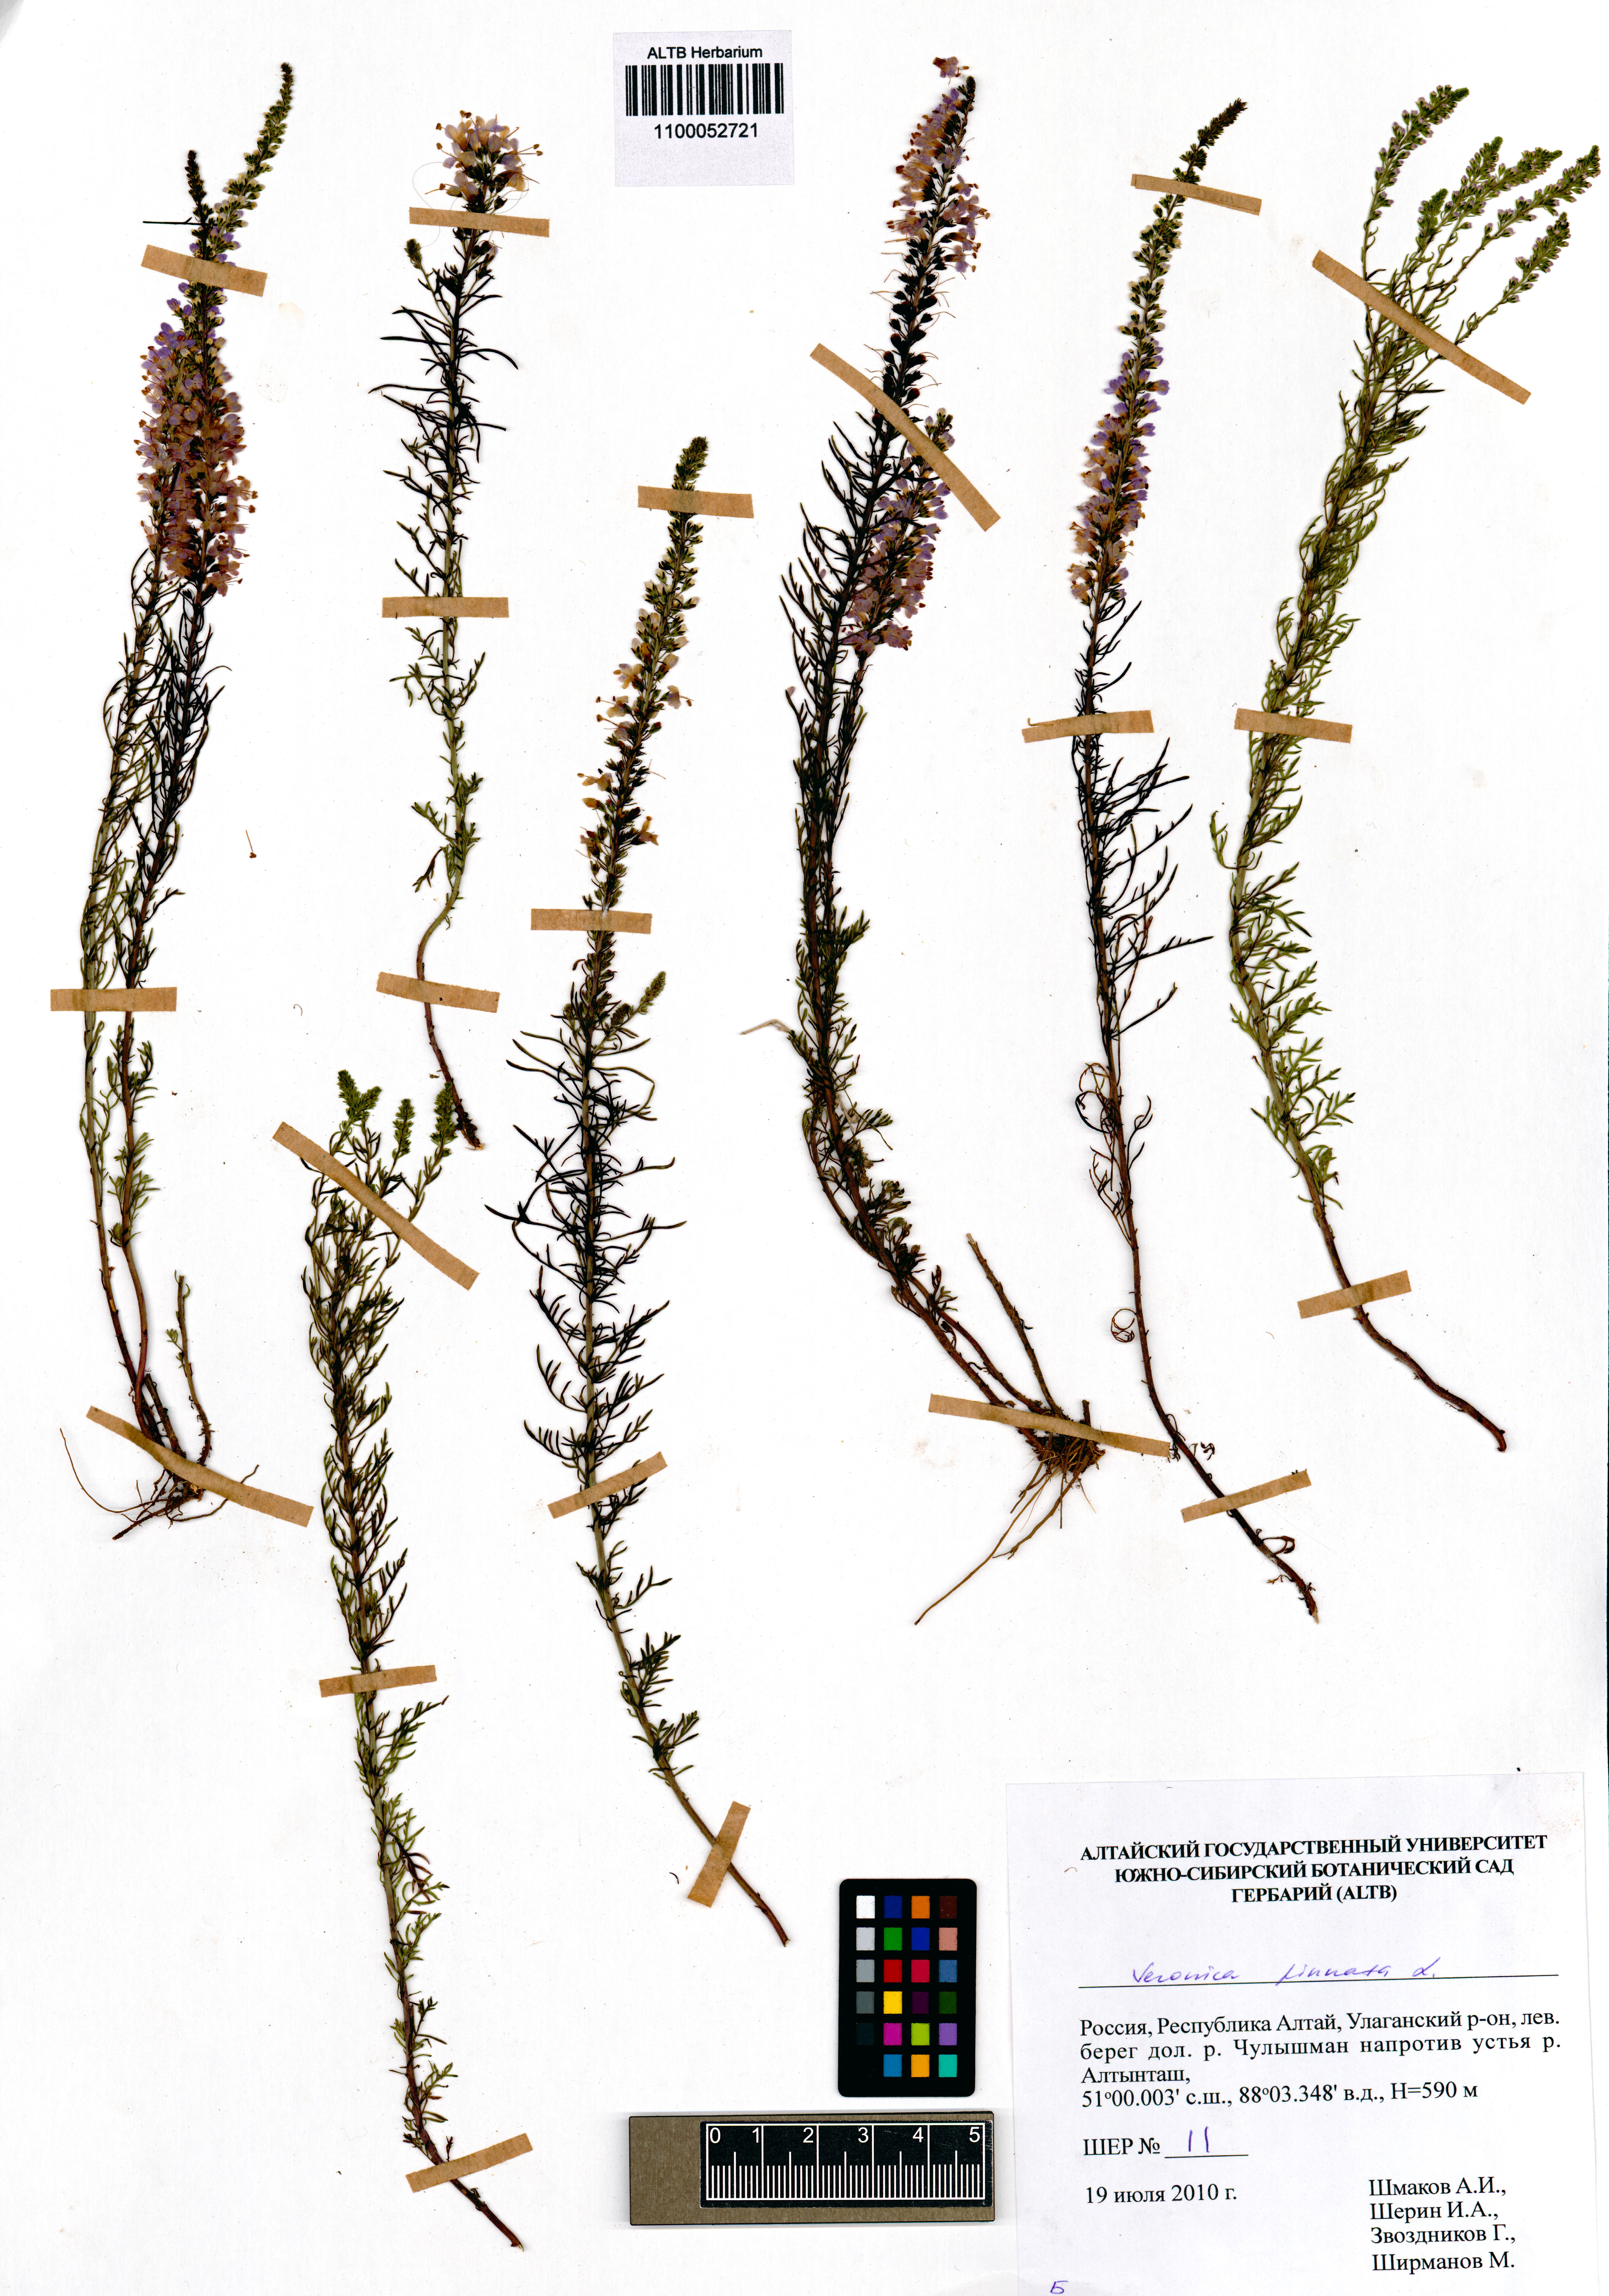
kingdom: Plantae
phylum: Tracheophyta
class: Magnoliopsida
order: Lamiales
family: Plantaginaceae
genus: Veronica
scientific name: Veronica pinnata
